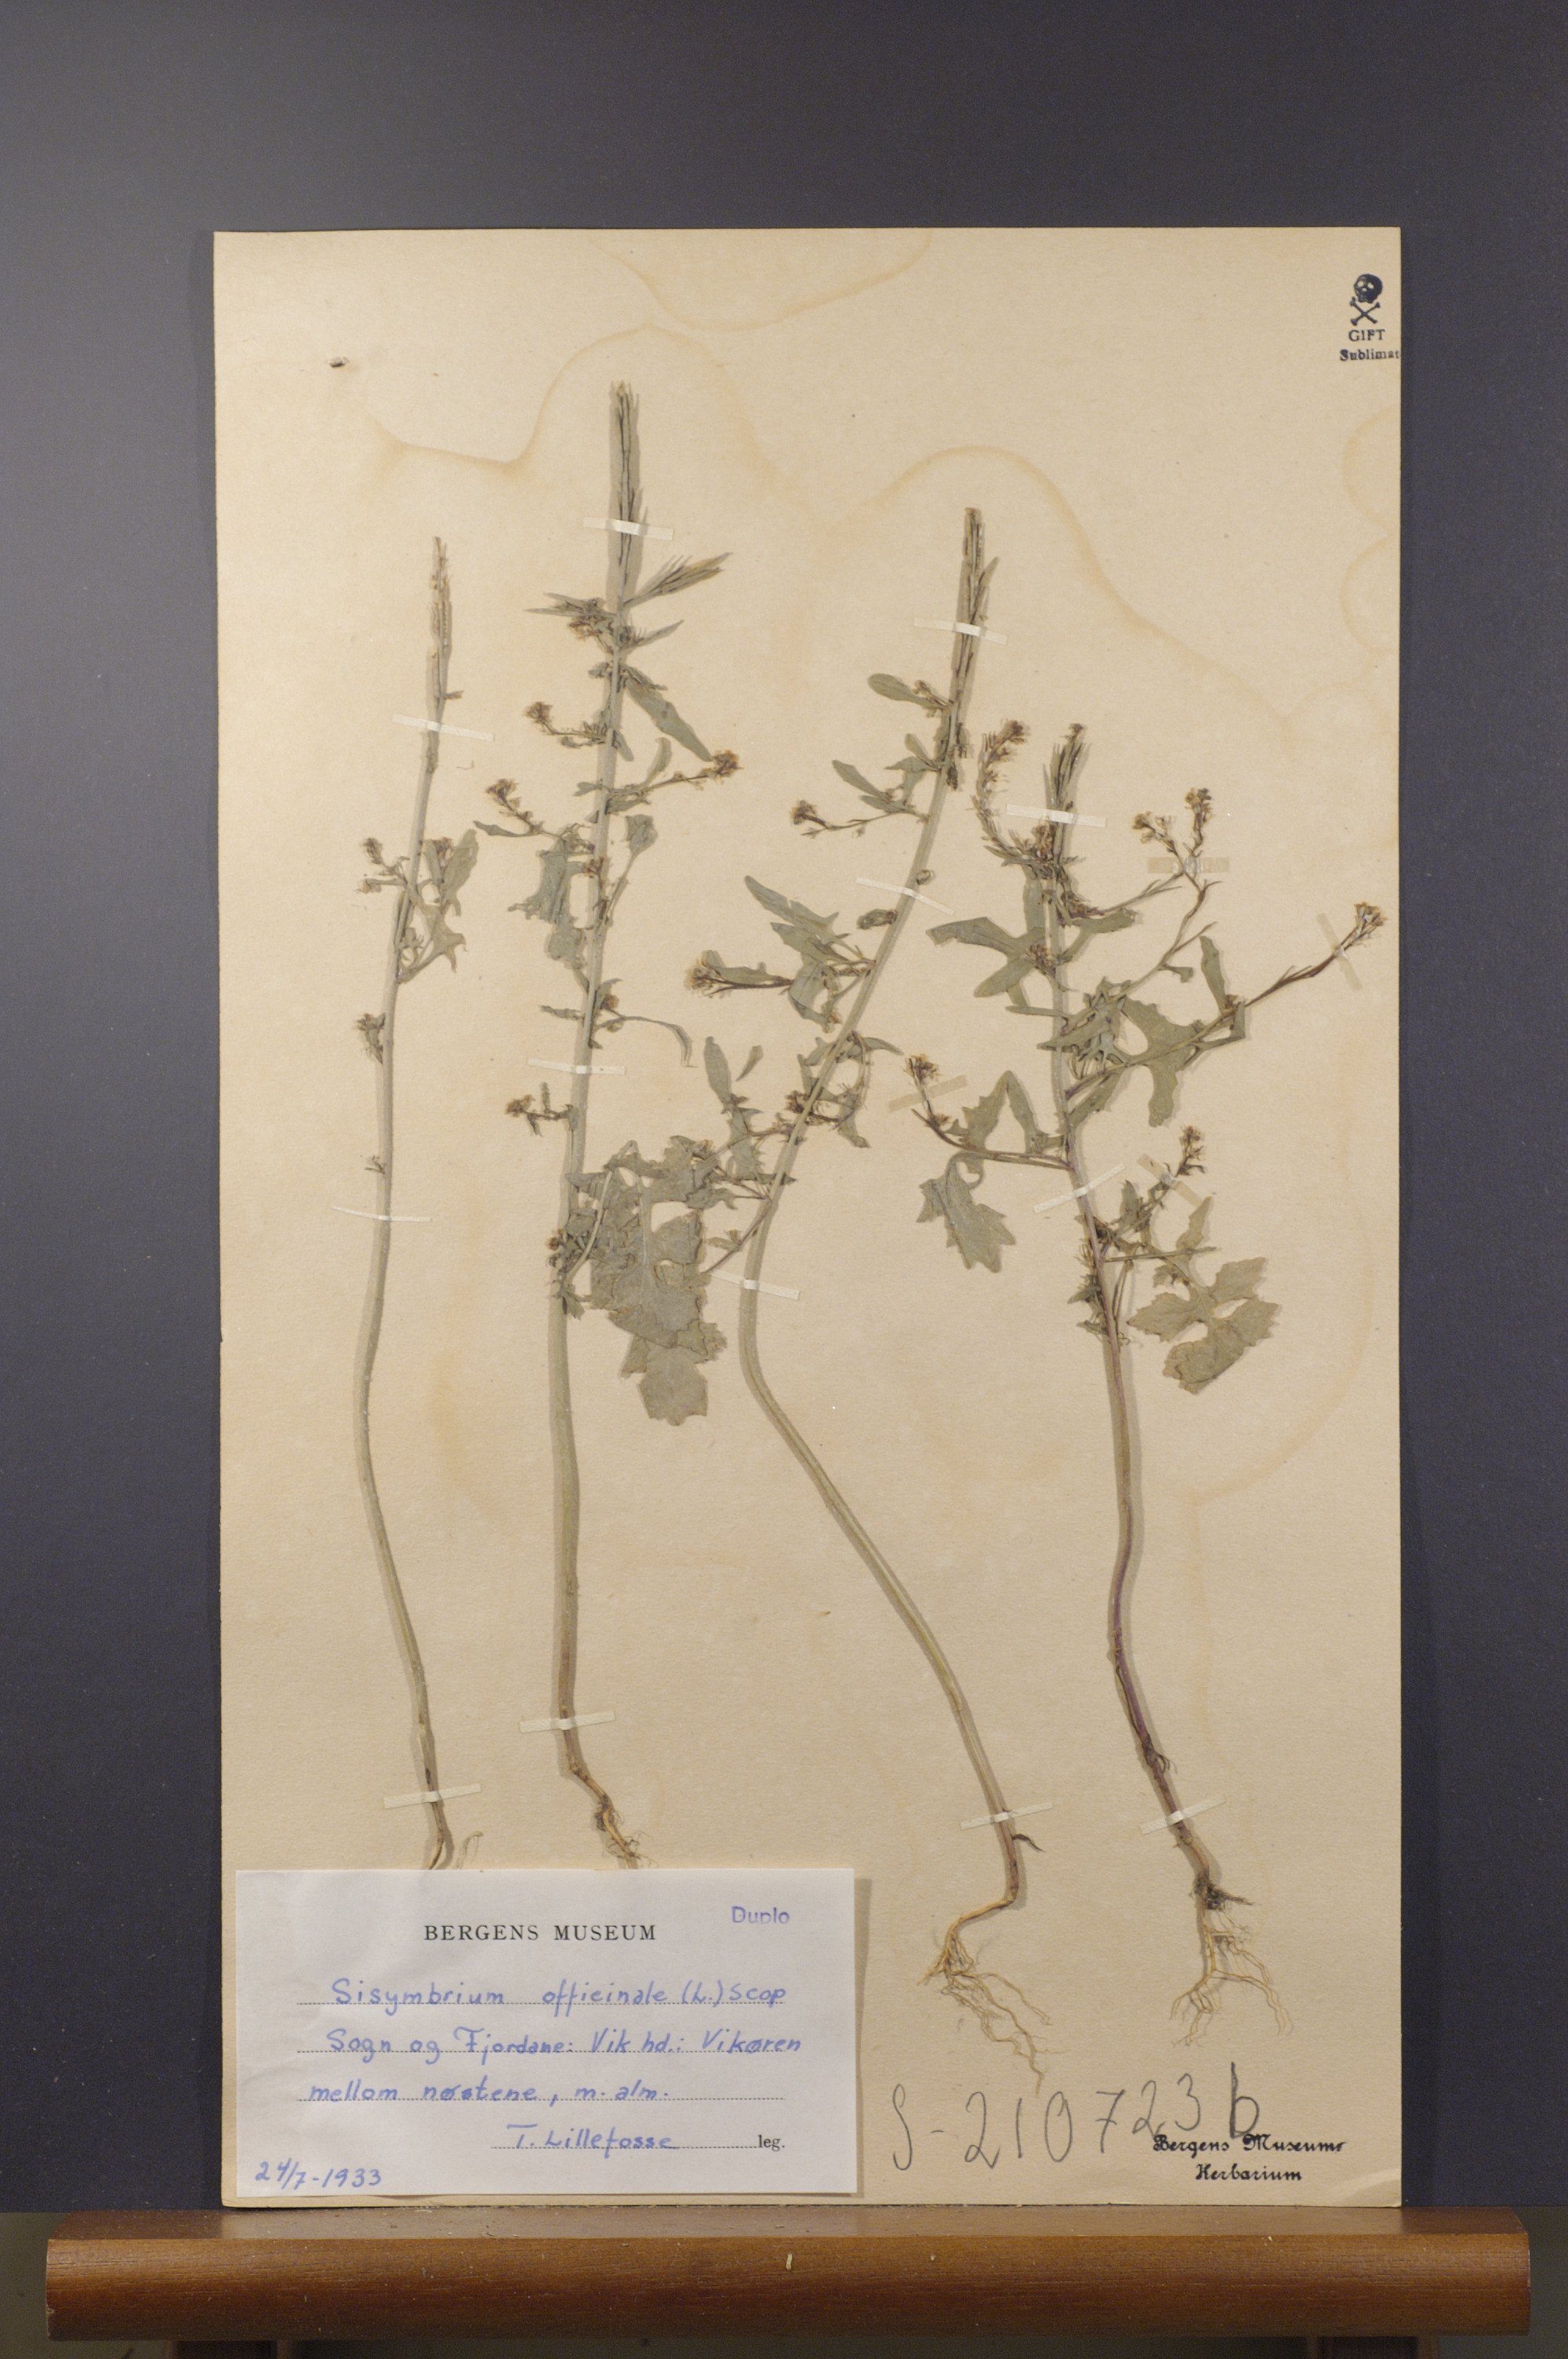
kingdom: Plantae
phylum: Tracheophyta
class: Magnoliopsida
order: Brassicales
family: Brassicaceae
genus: Sisymbrium
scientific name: Sisymbrium officinale
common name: Hedge mustard
